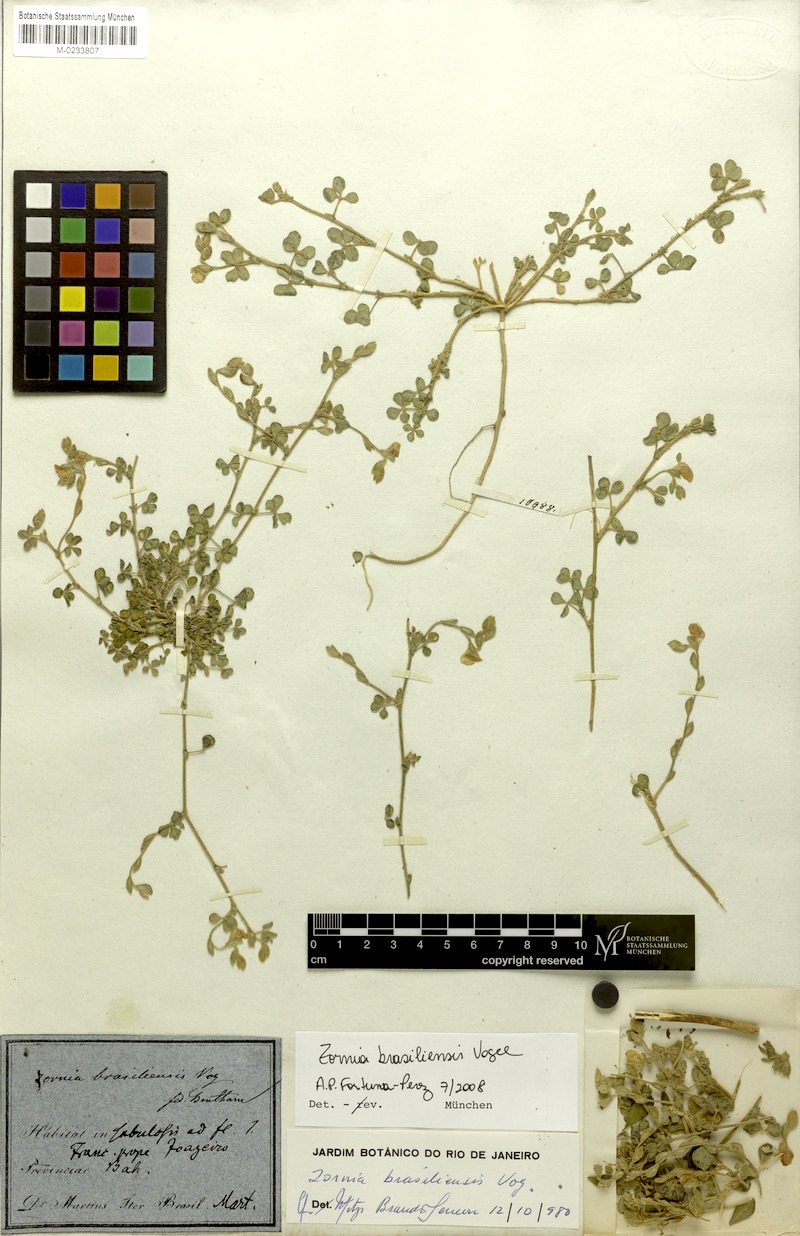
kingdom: Plantae
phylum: Tracheophyta
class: Magnoliopsida
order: Fabales
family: Fabaceae
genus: Zornia
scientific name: Zornia brasiliensis
